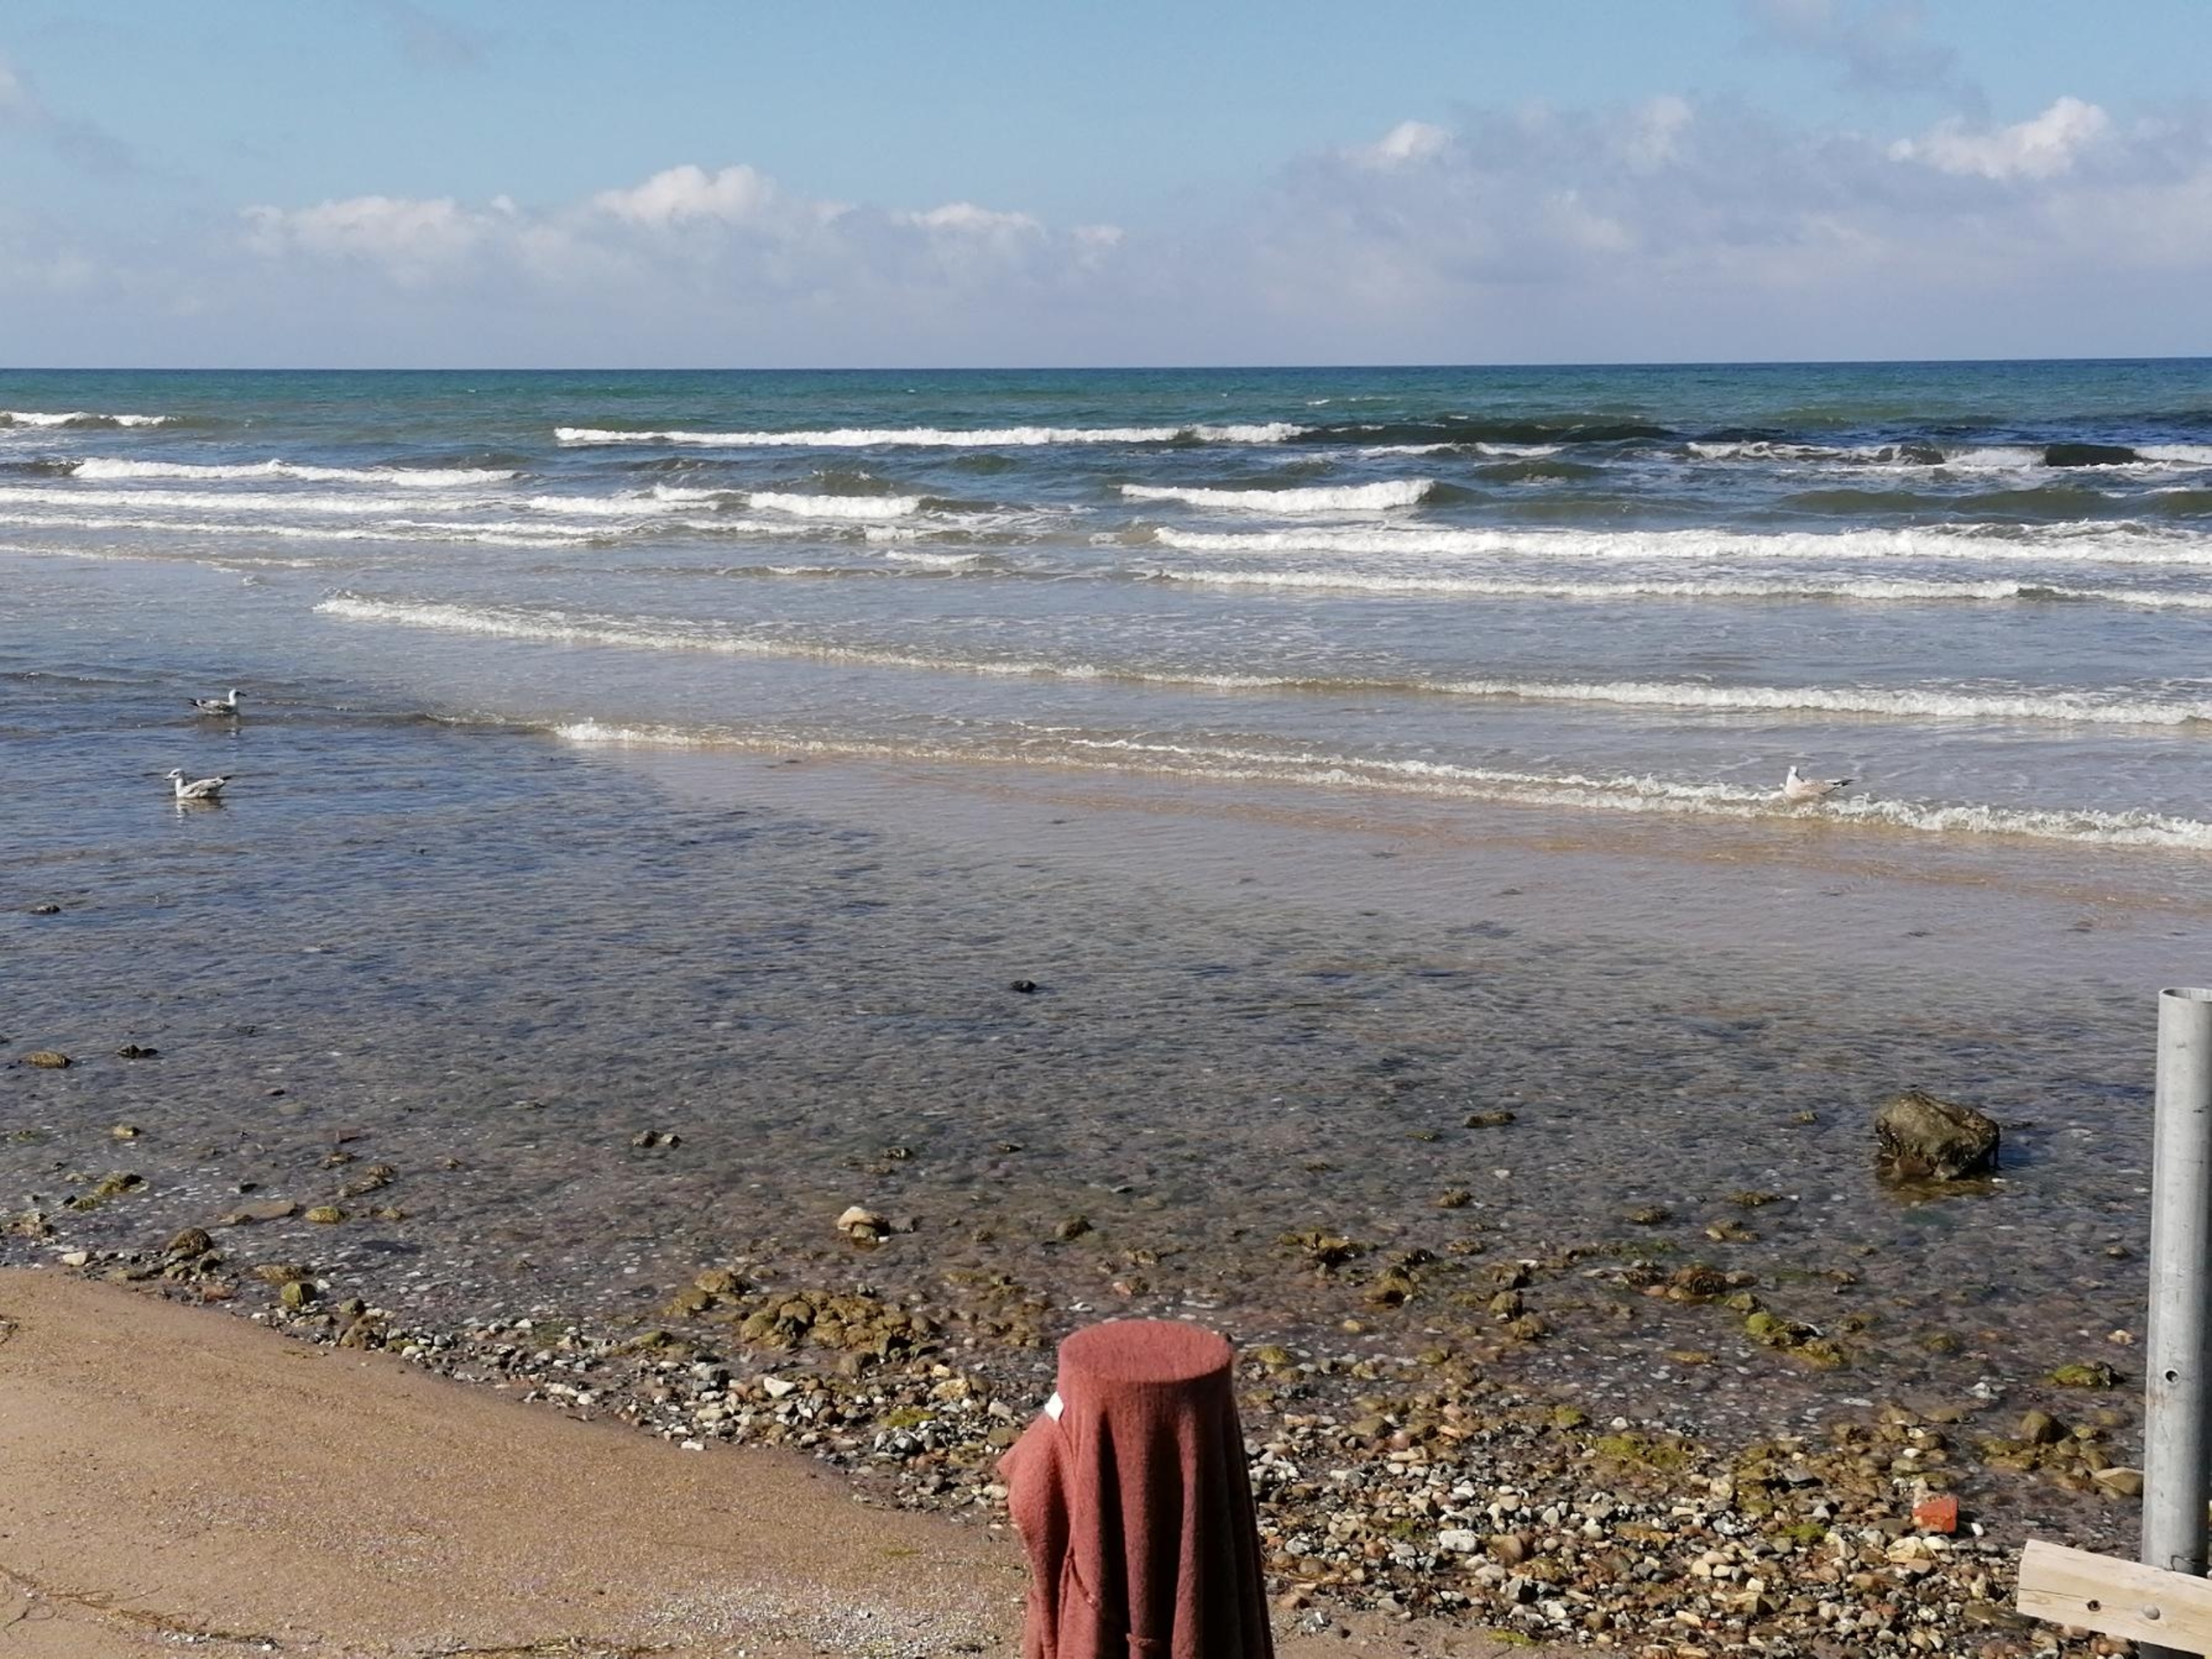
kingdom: Animalia
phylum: Chordata
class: Aves
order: Charadriiformes
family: Laridae
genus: Larus
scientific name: Larus argentatus
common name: Sølvmåge
